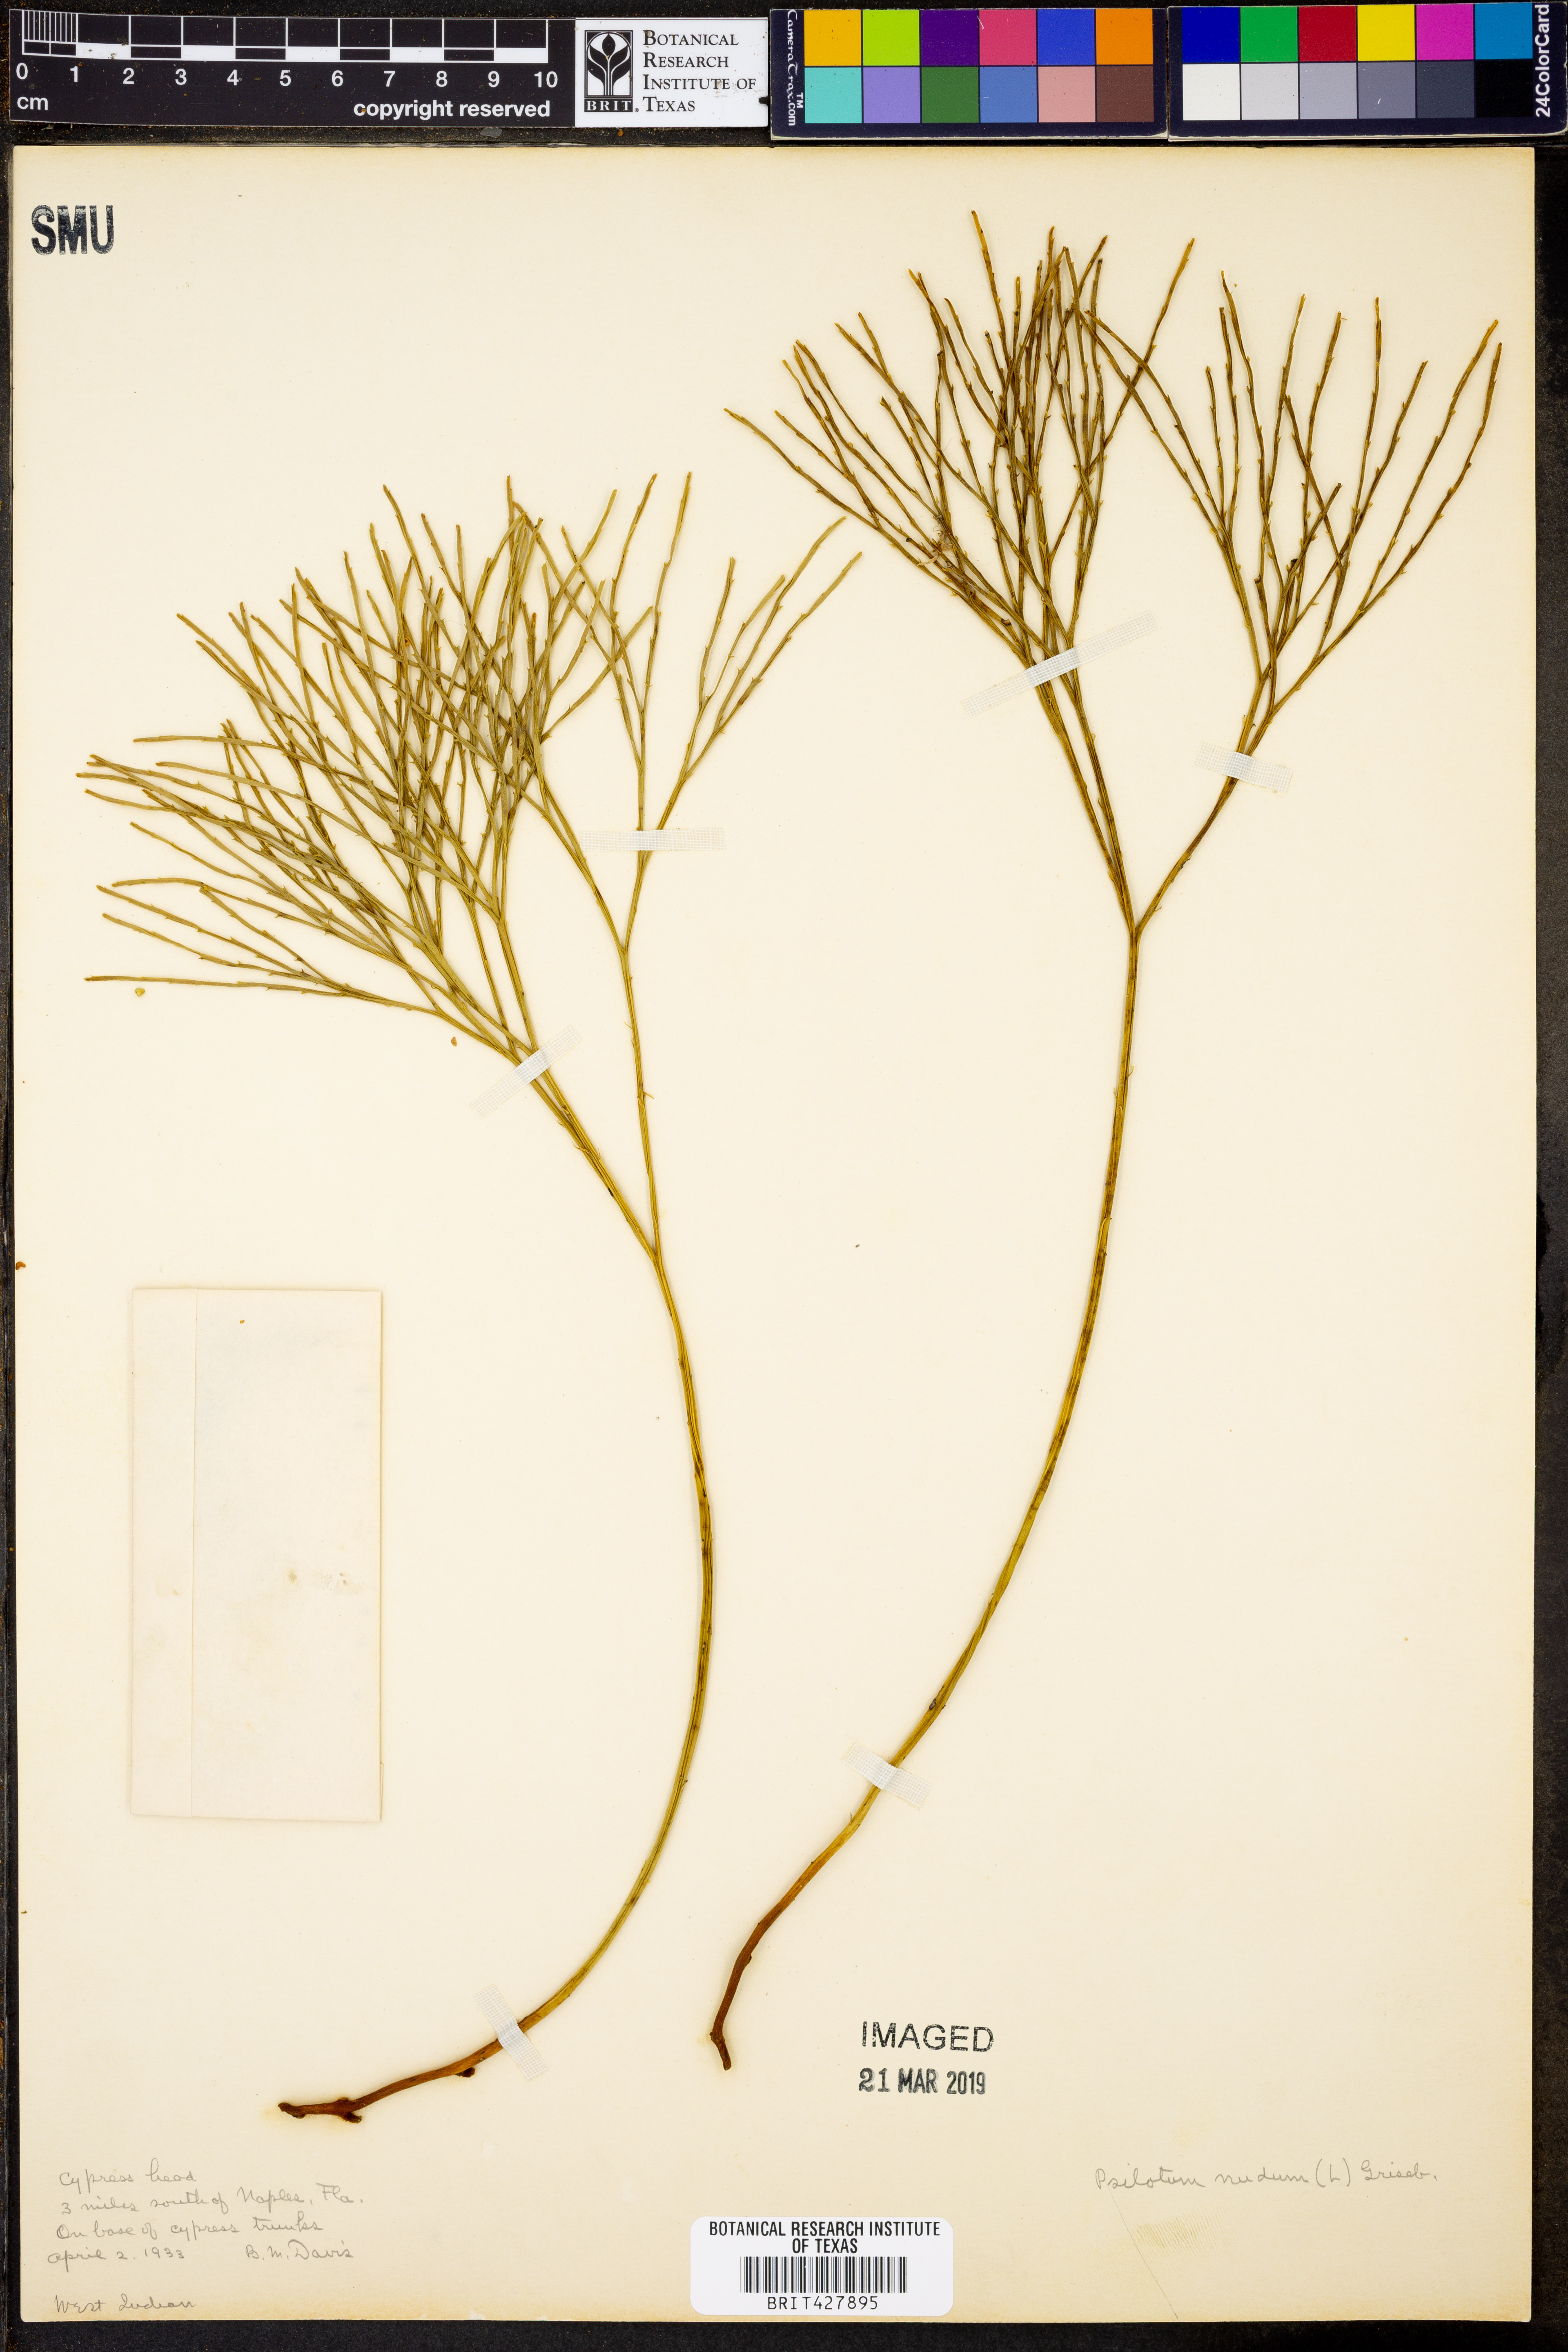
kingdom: Plantae
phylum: Tracheophyta
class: Polypodiopsida
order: Psilotales
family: Psilotaceae
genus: Psilotum
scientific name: Psilotum nudum
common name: Skeleton fork fern
